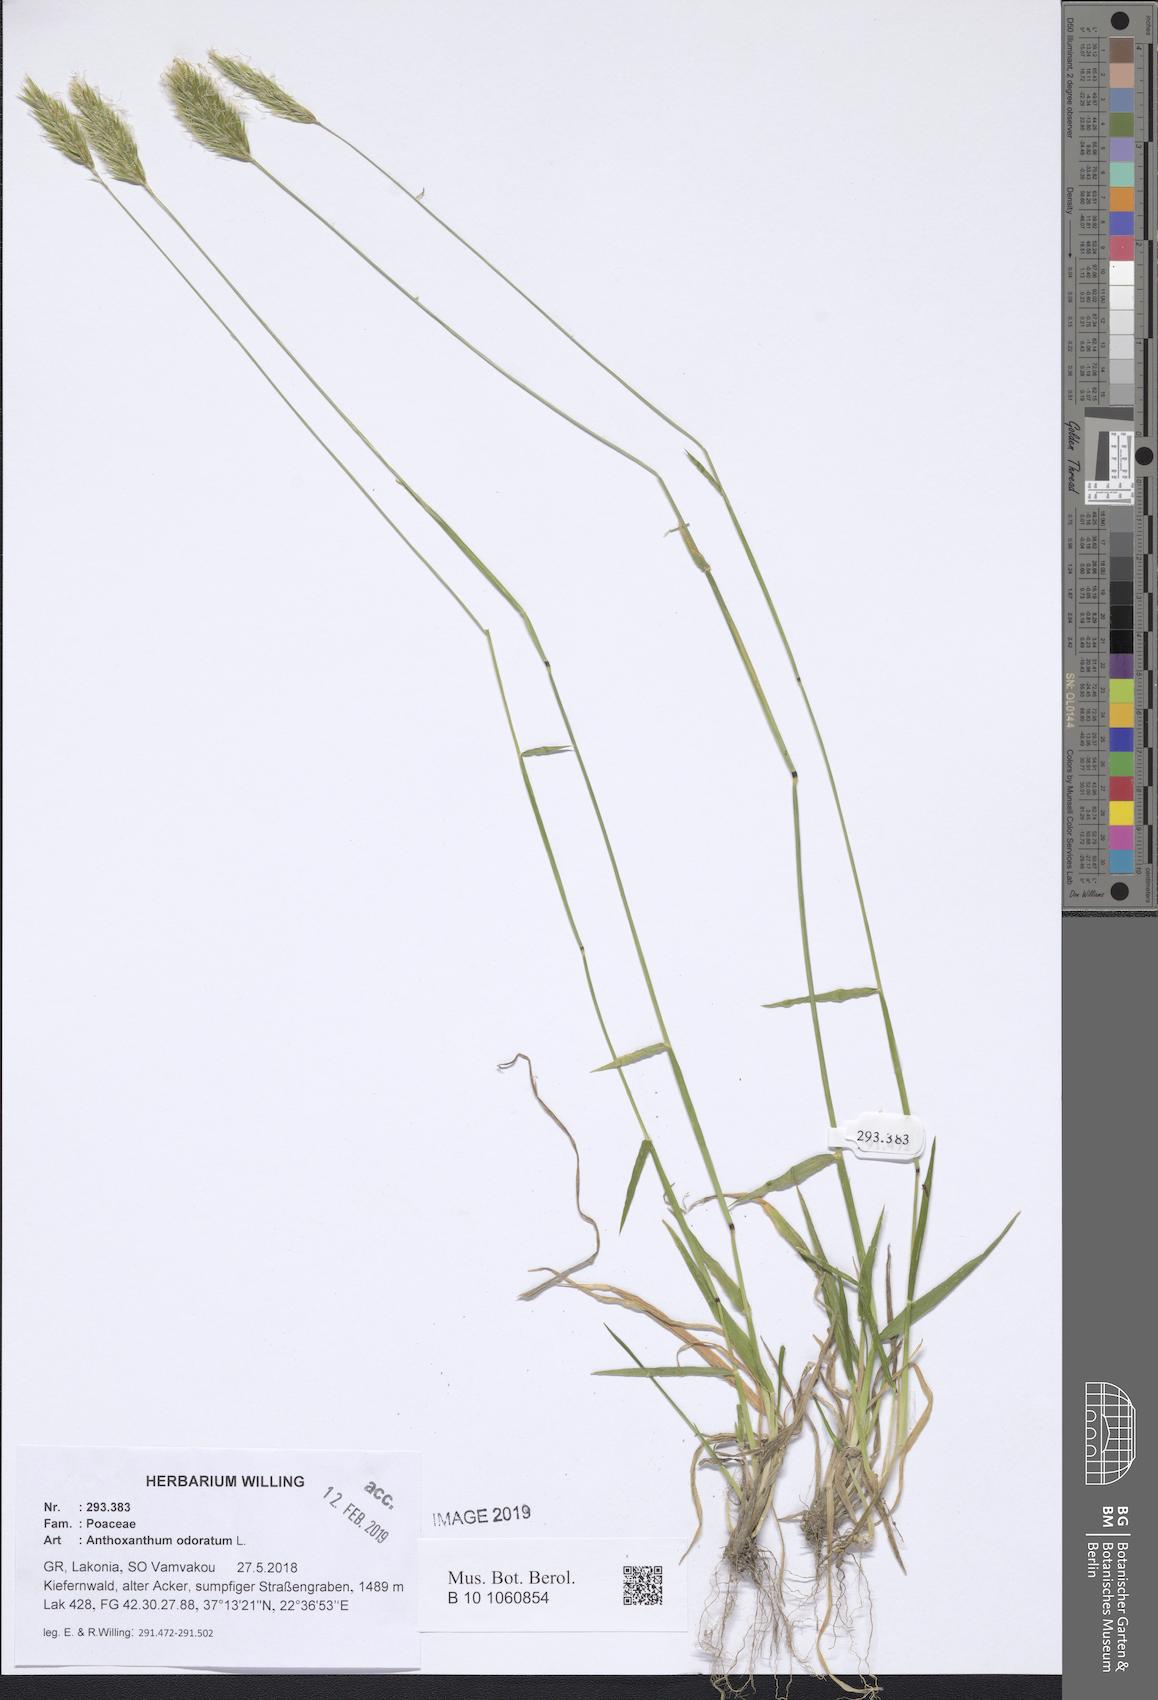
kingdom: Plantae
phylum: Tracheophyta
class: Liliopsida
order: Poales
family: Poaceae
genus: Anthoxanthum
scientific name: Anthoxanthum odoratum
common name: Sweet vernalgrass
